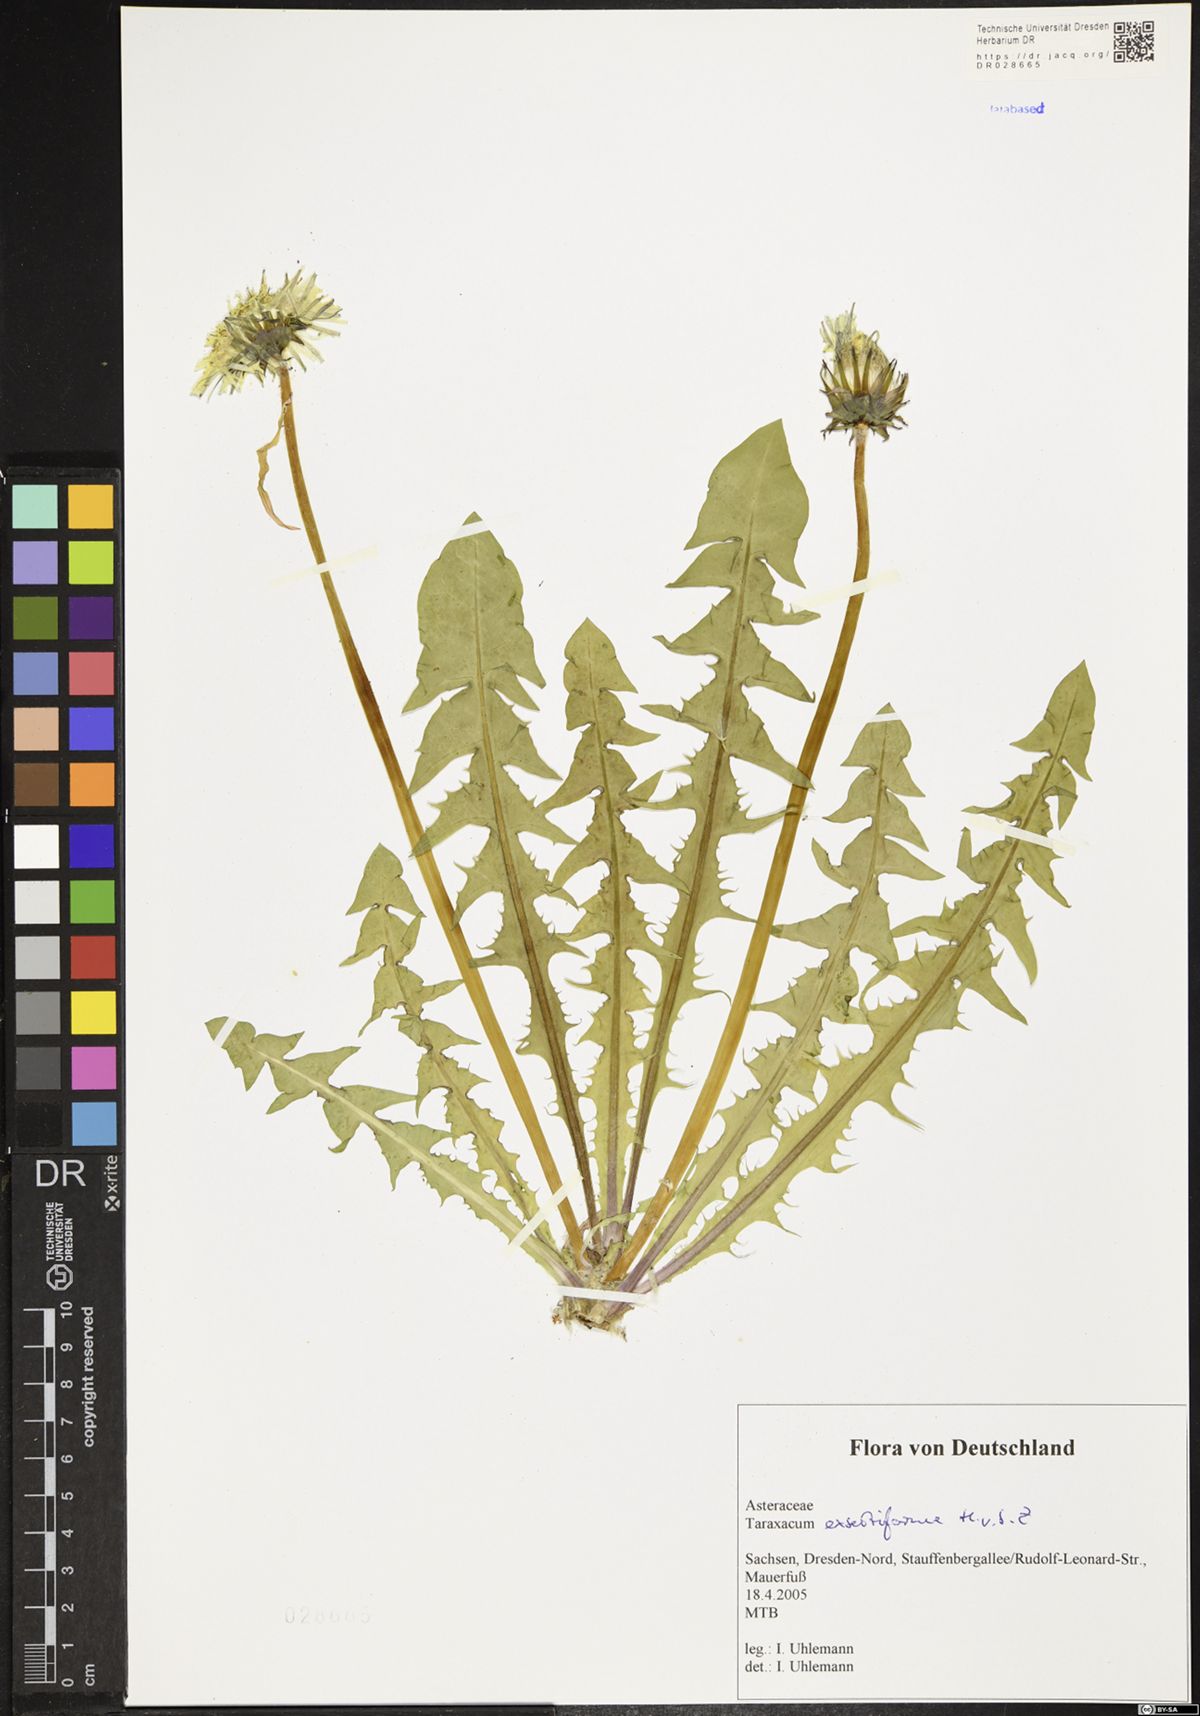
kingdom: Plantae
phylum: Tracheophyta
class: Magnoliopsida
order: Asterales
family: Asteraceae
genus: Taraxacum
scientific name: Taraxacum exsertiforme
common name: Erect-bracted dandelion
